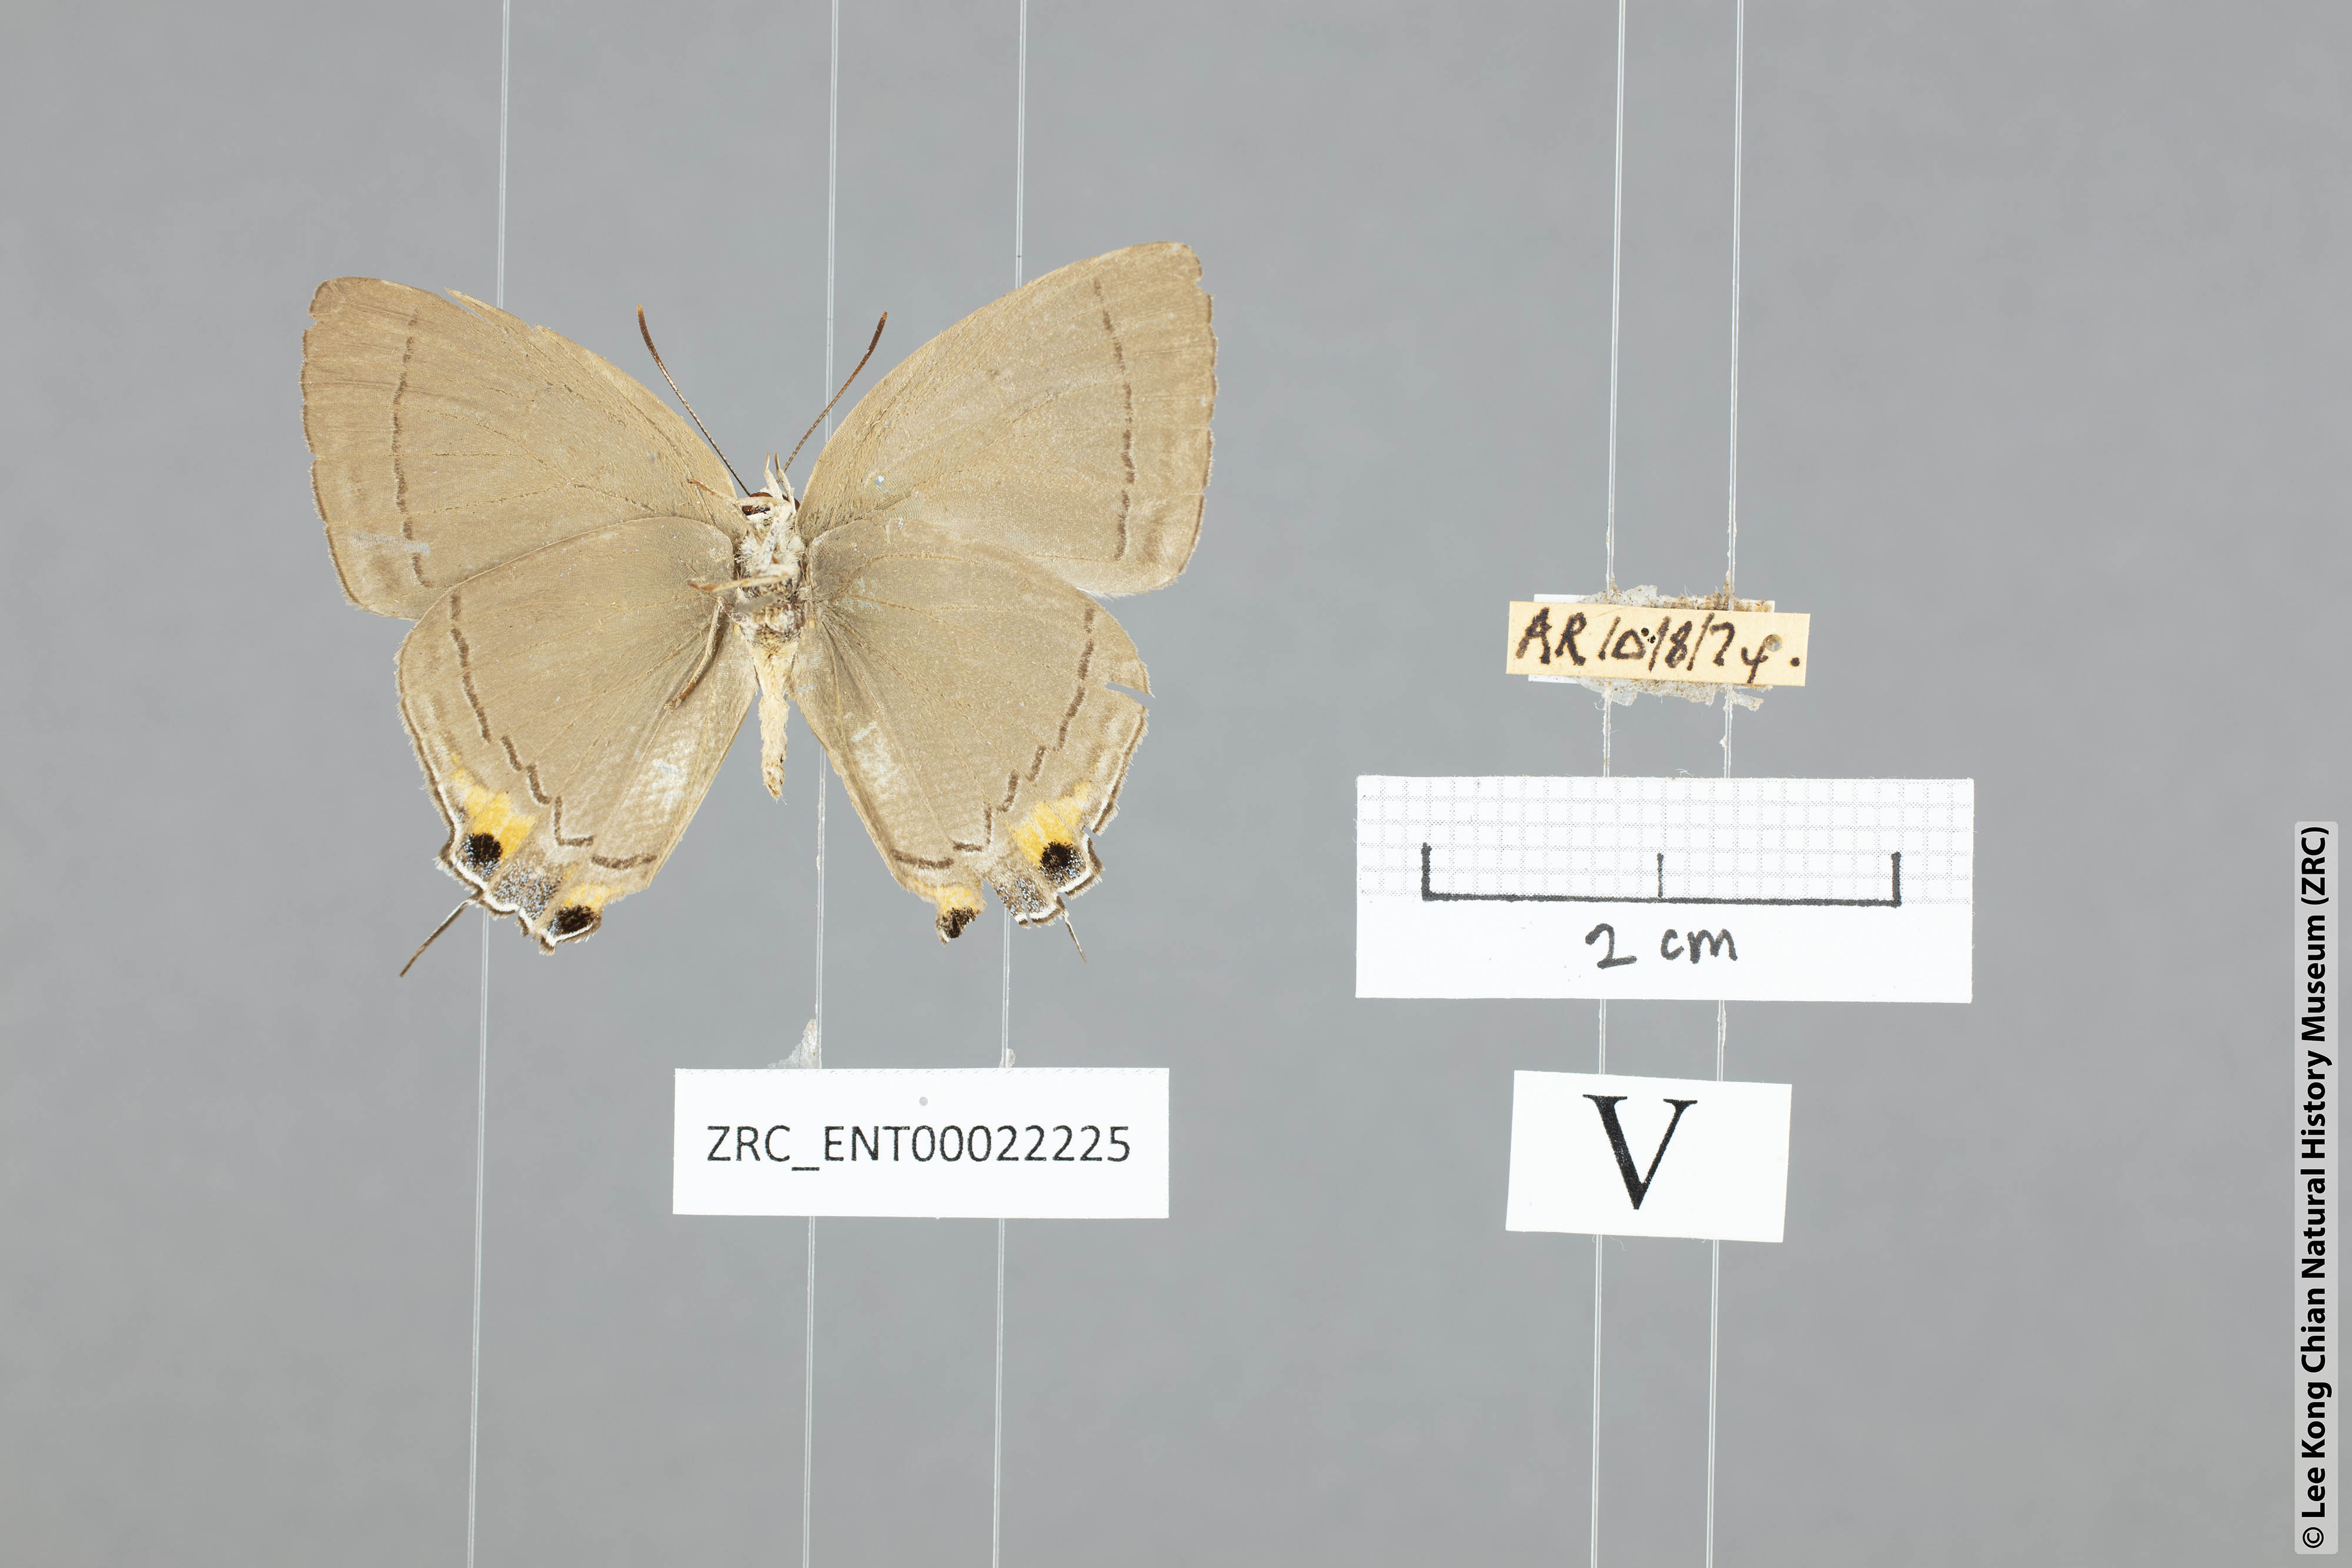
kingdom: Animalia
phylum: Arthropoda
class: Insecta
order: Lepidoptera
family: Lycaenidae
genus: Tajuria
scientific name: Tajuria
